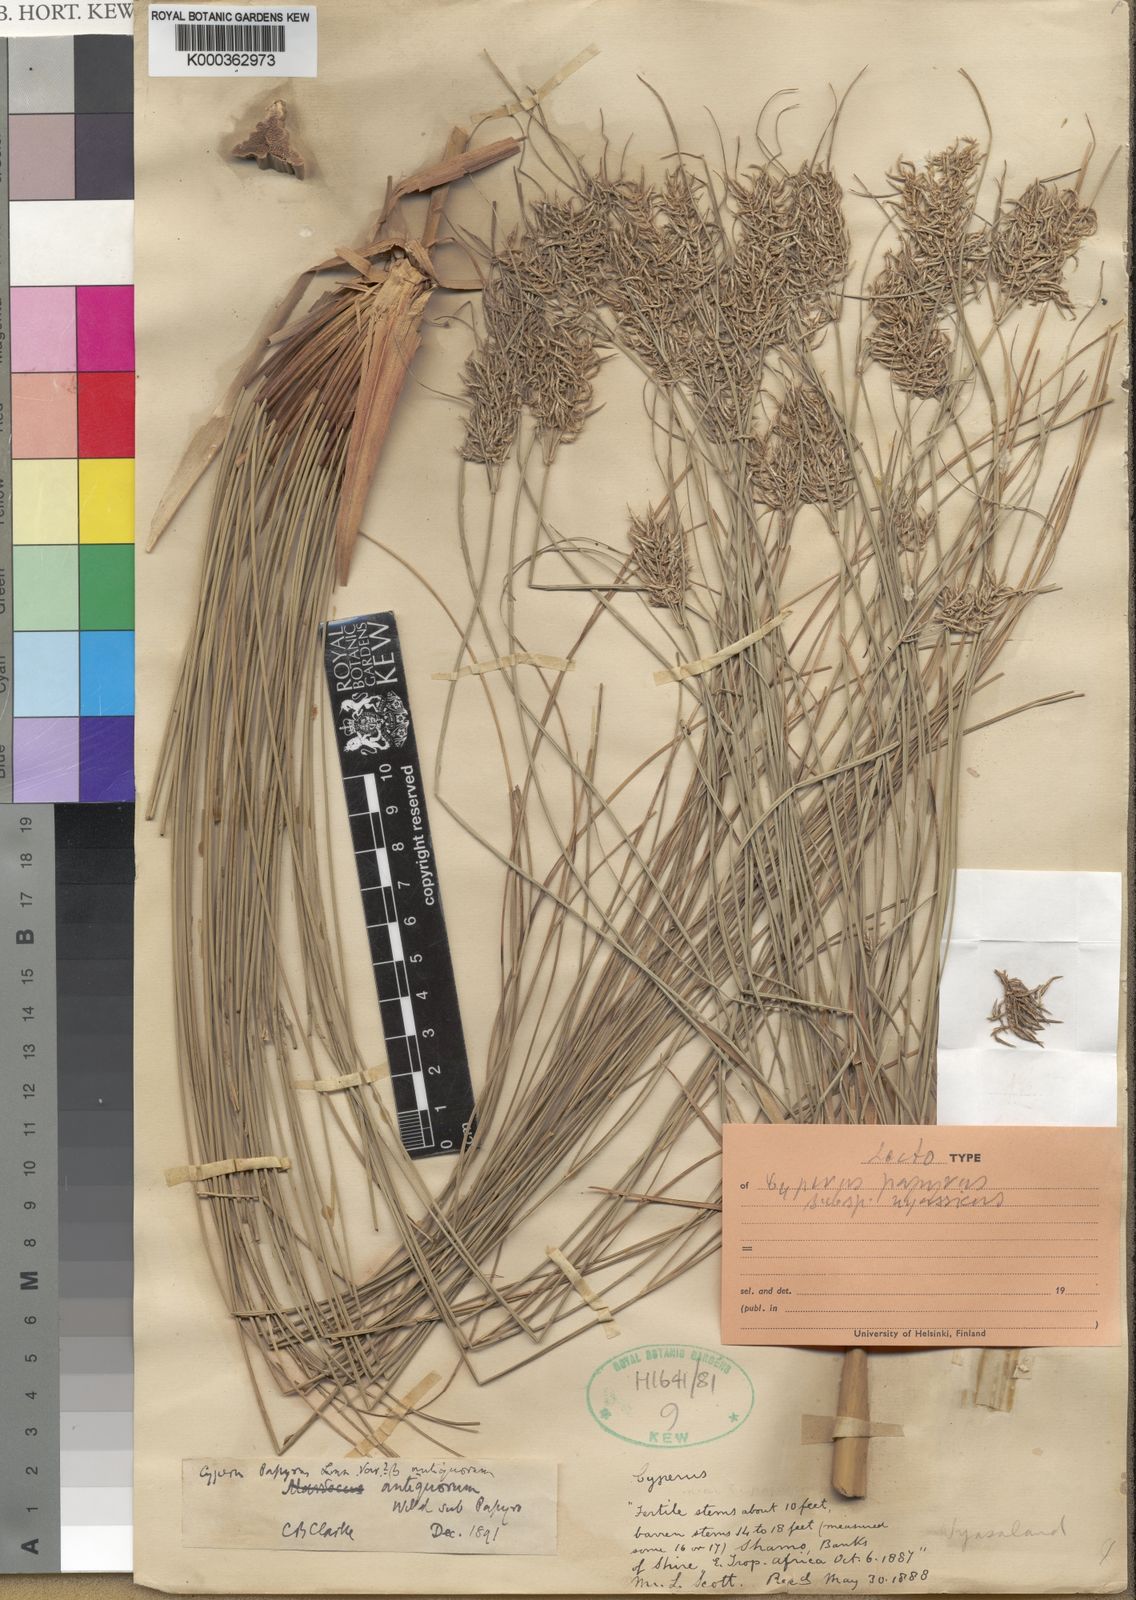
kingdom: Plantae
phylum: Tracheophyta
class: Liliopsida
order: Poales
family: Cyperaceae
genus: Cyperus
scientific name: Cyperus papyrus
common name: Papyrus
